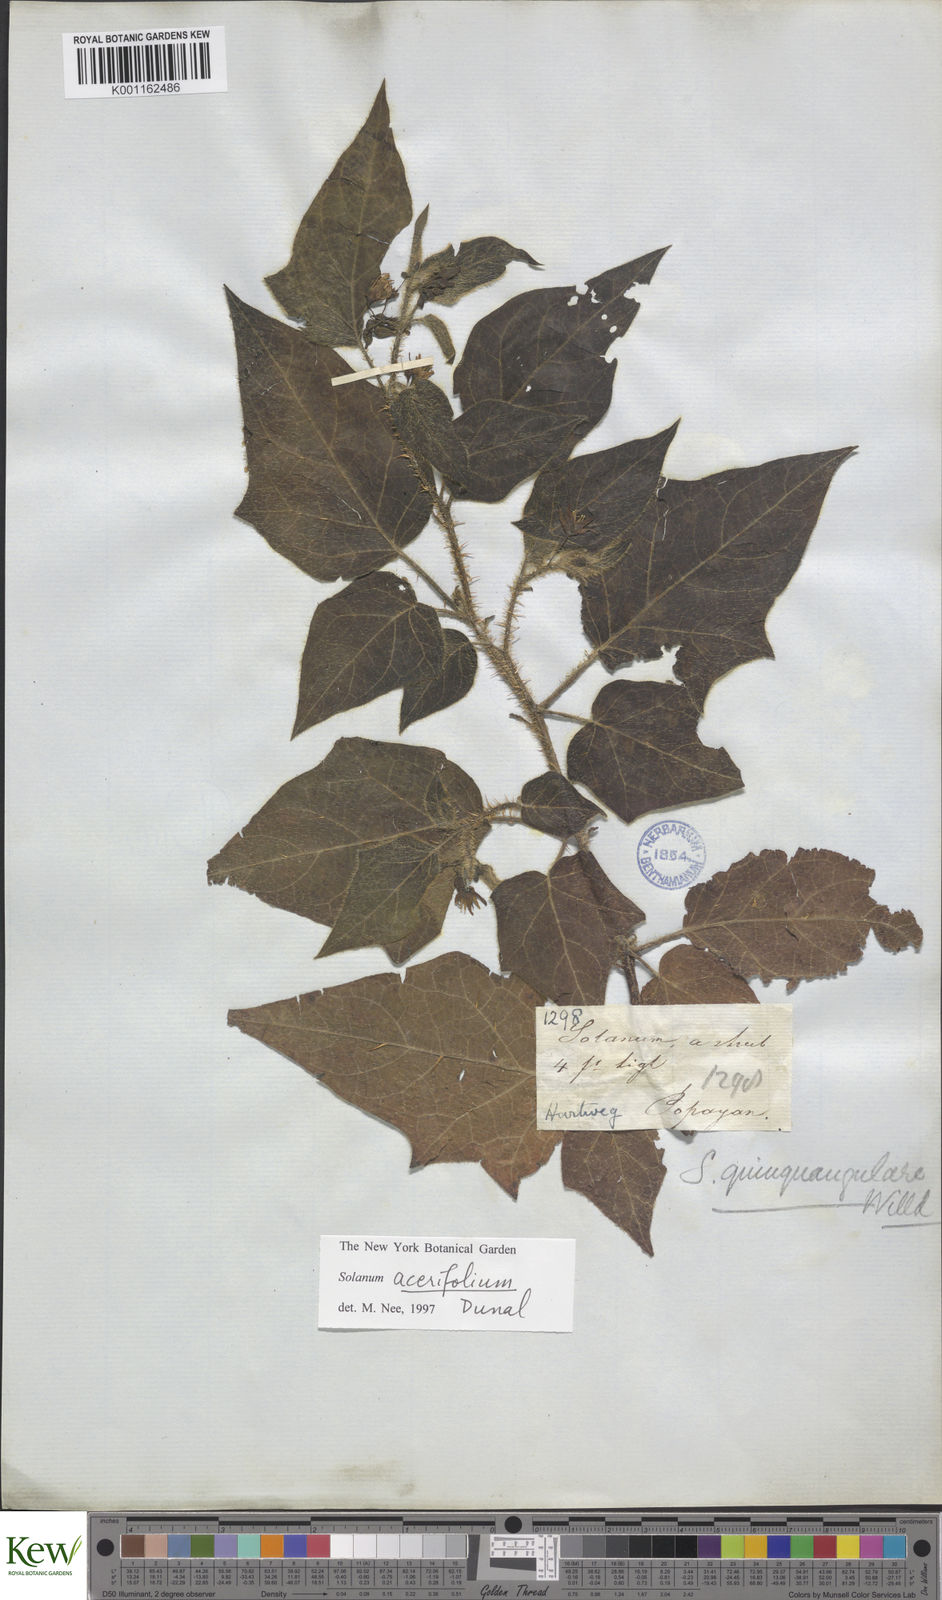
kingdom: Plantae
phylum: Tracheophyta
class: Magnoliopsida
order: Solanales
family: Solanaceae
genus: Solanum
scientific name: Solanum acerifolium
